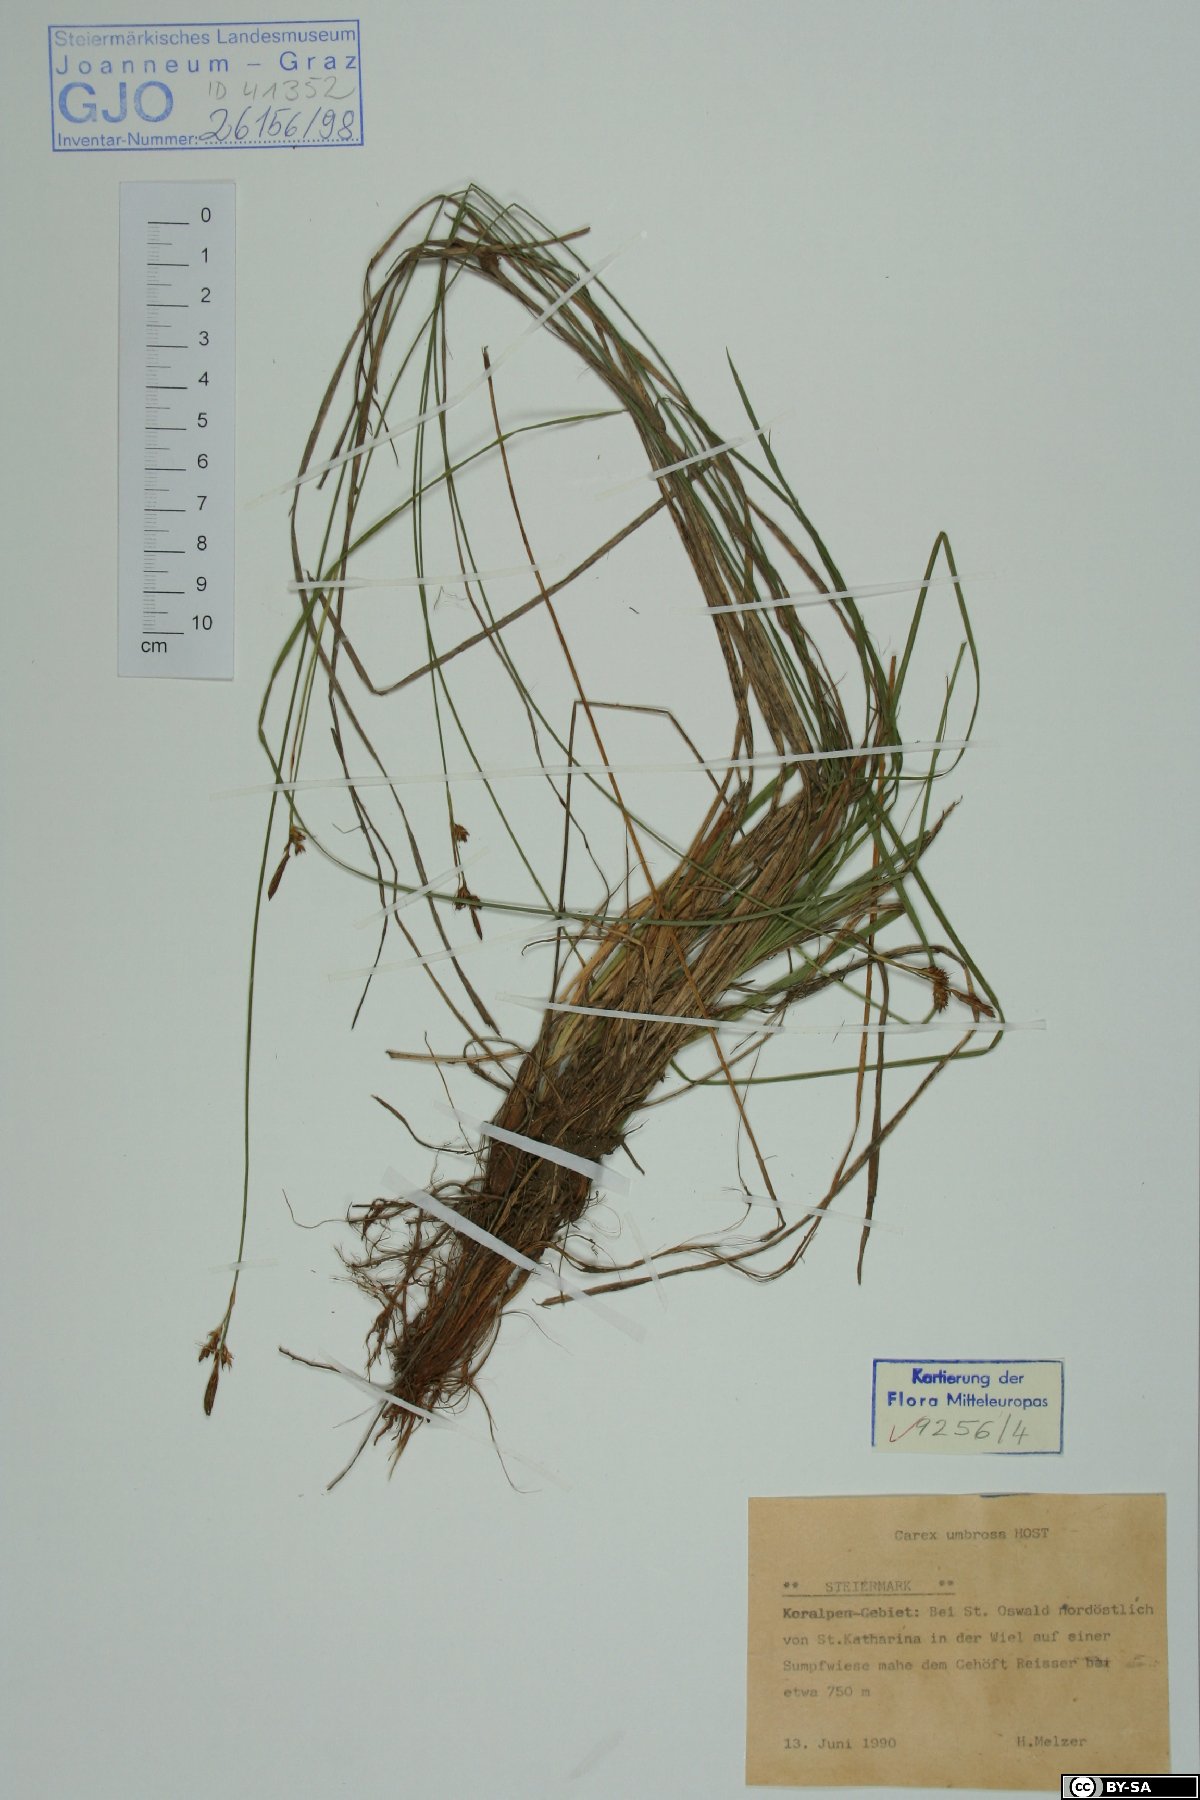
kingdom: Plantae
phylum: Tracheophyta
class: Liliopsida
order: Poales
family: Cyperaceae
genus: Carex
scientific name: Carex umbrosa
